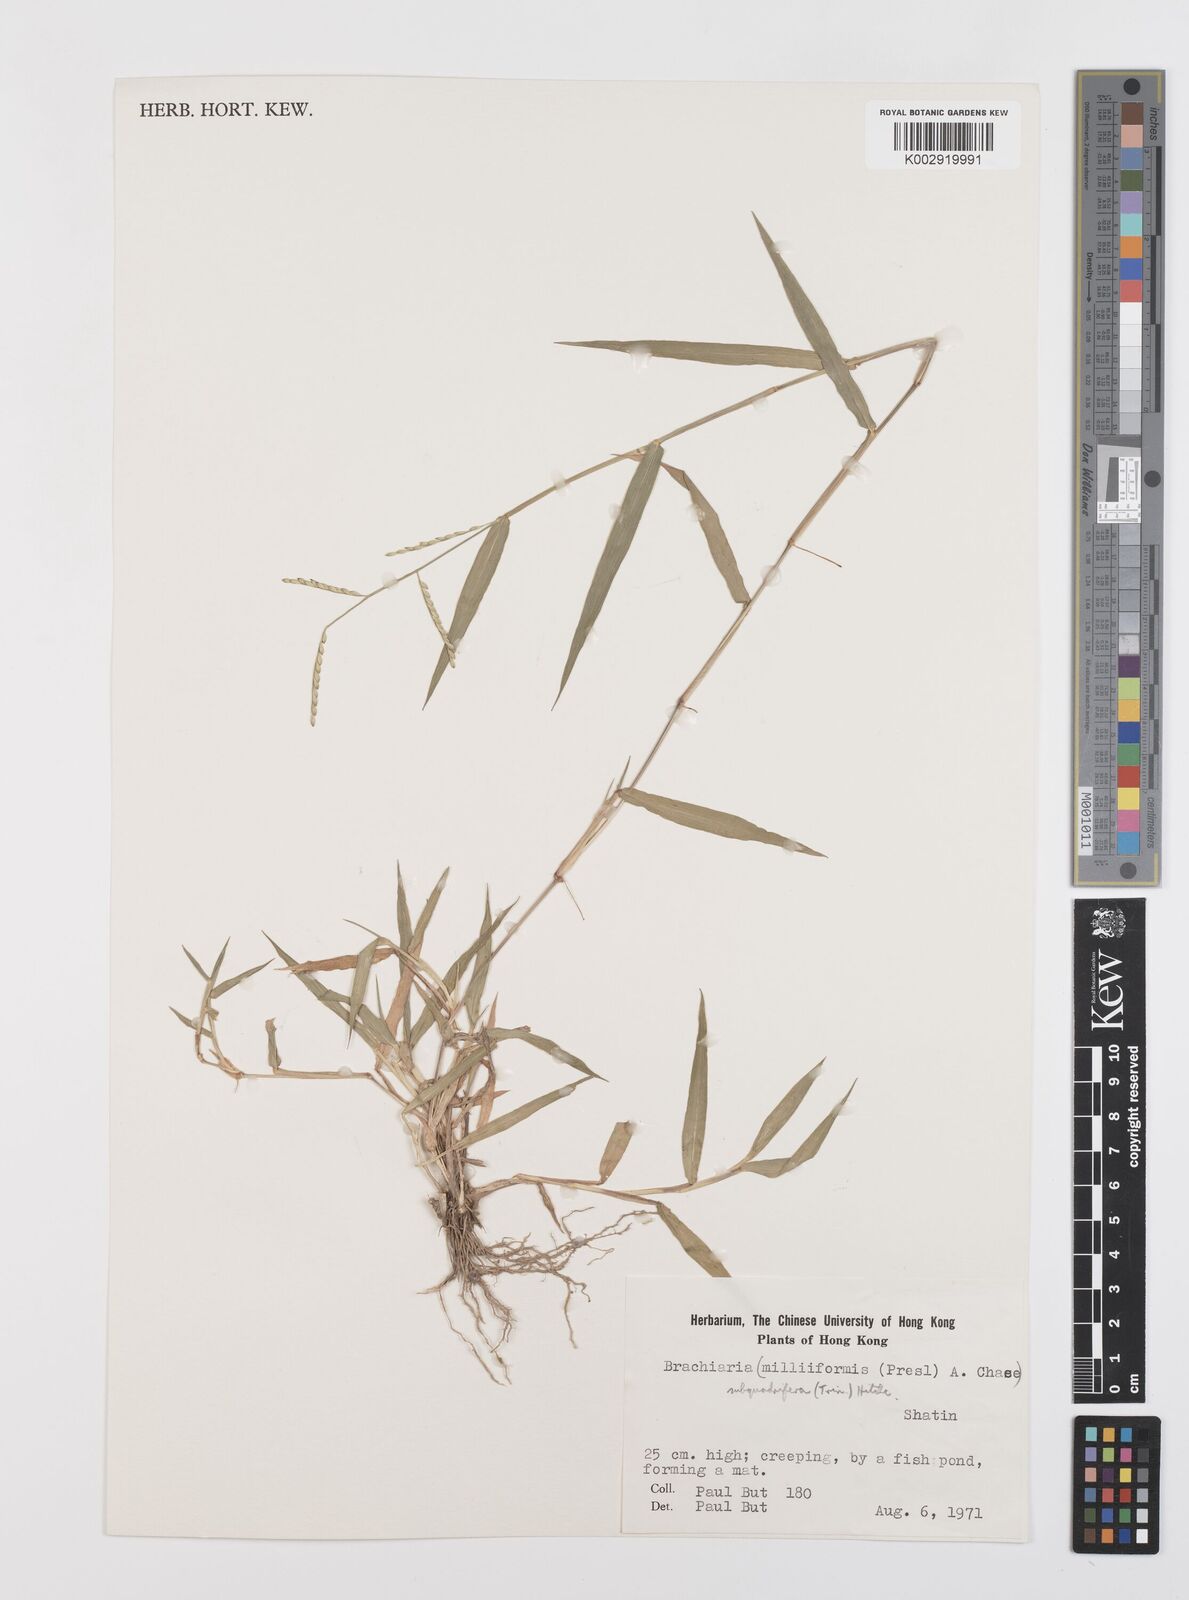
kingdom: Plantae
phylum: Tracheophyta
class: Liliopsida
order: Poales
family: Poaceae
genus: Urochloa
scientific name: Urochloa subquadripara
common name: Armgrass millet
